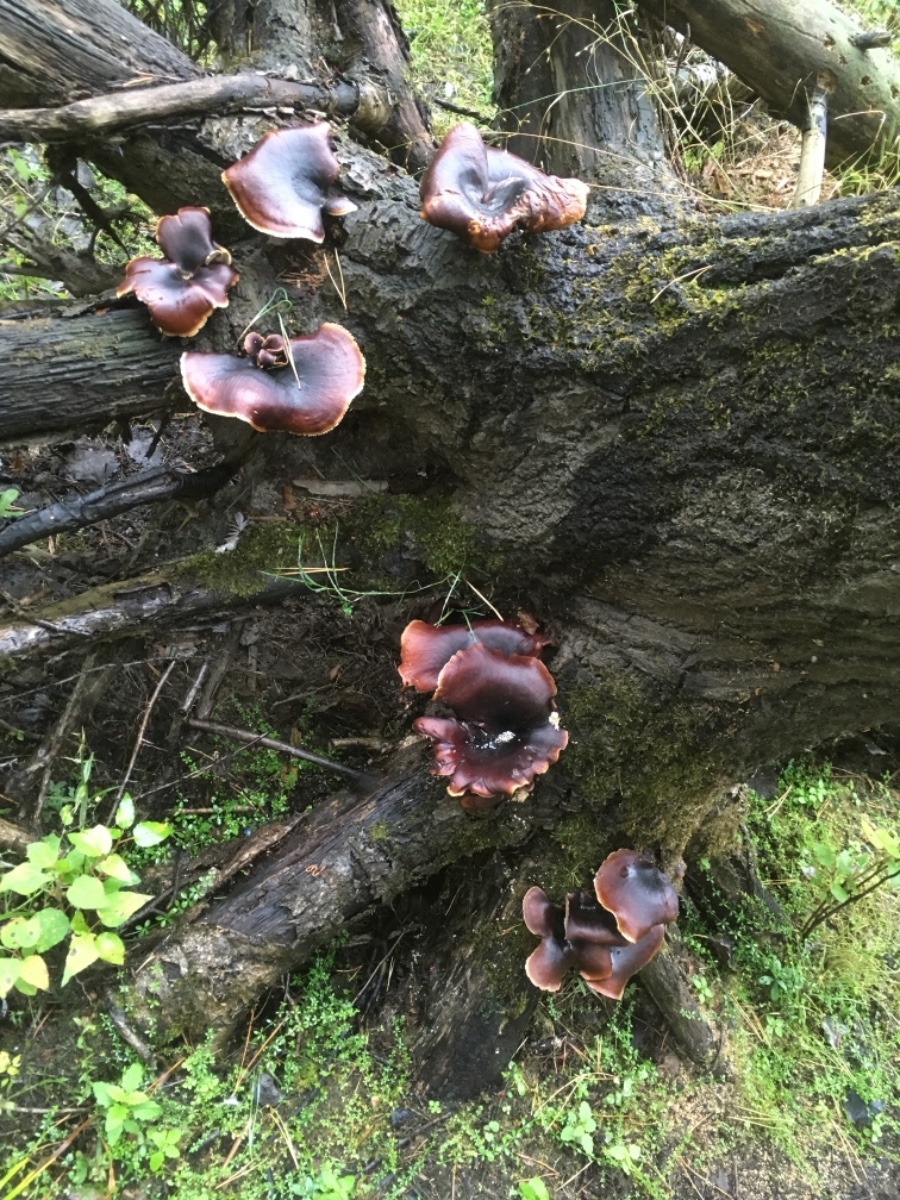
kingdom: Fungi
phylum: Basidiomycota
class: Agaricomycetes
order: Polyporales
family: Polyporaceae
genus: Picipes
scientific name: Picipes badius
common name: kastaniebrun stilkporesvamp
